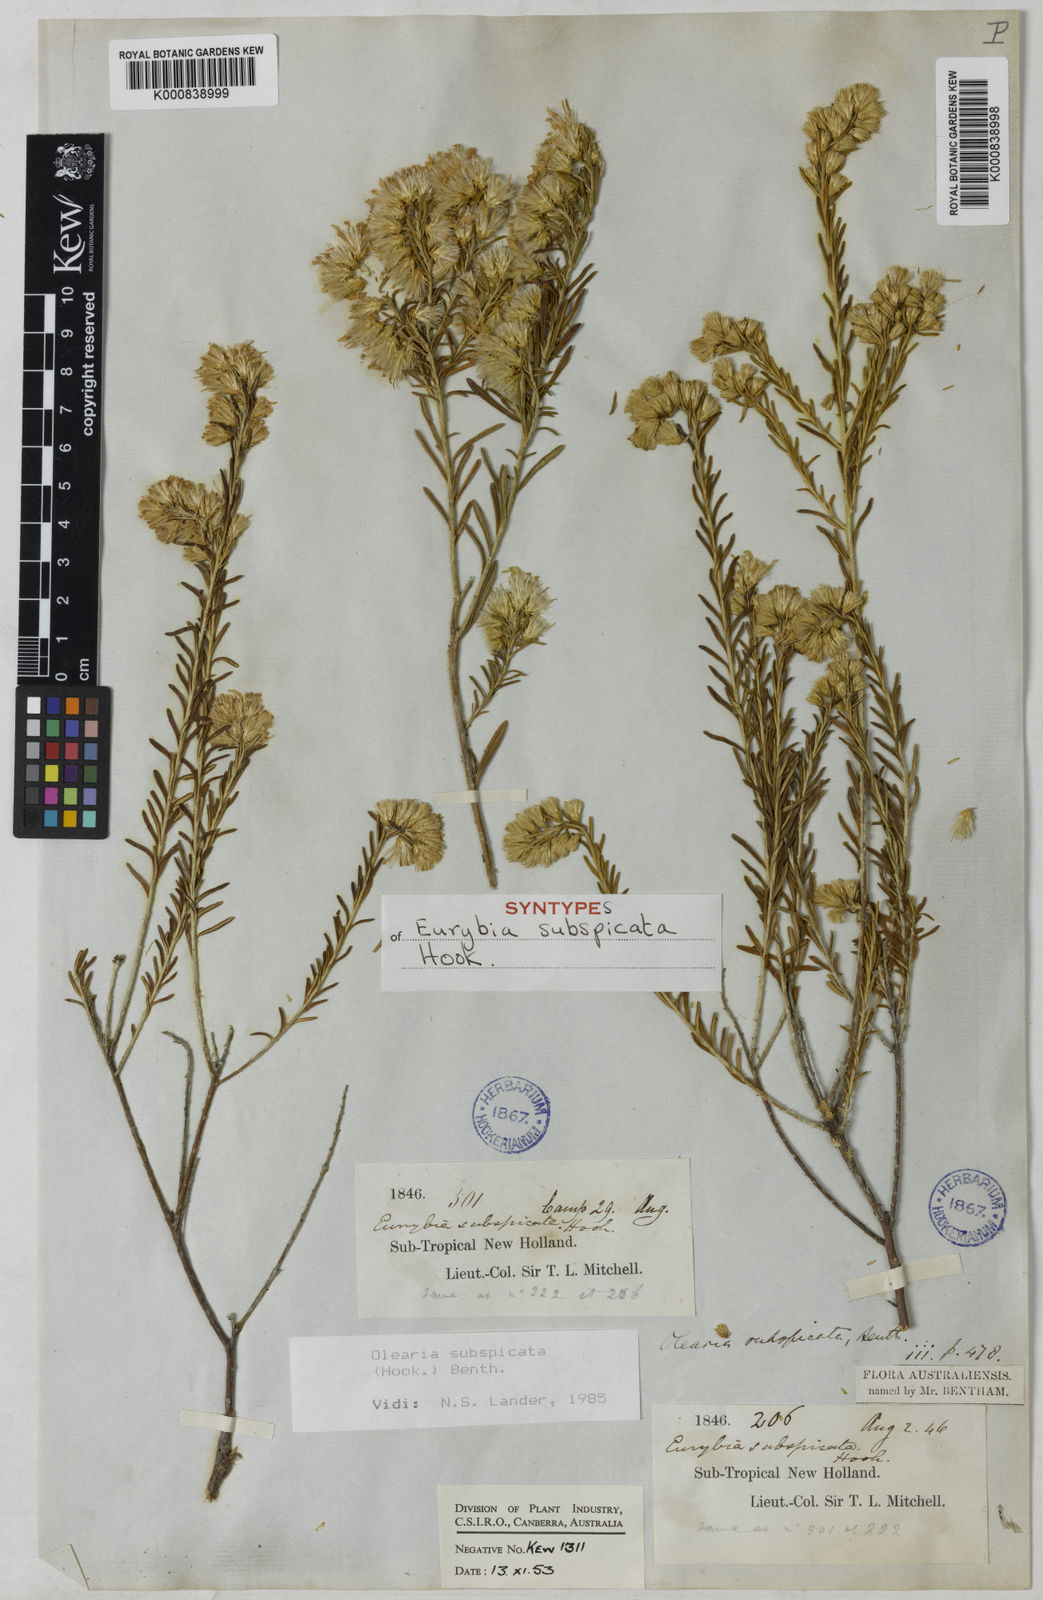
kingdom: Plantae
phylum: Tracheophyta
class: Magnoliopsida
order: Asterales
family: Asteraceae
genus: Olearia
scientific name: Olearia subspicata
